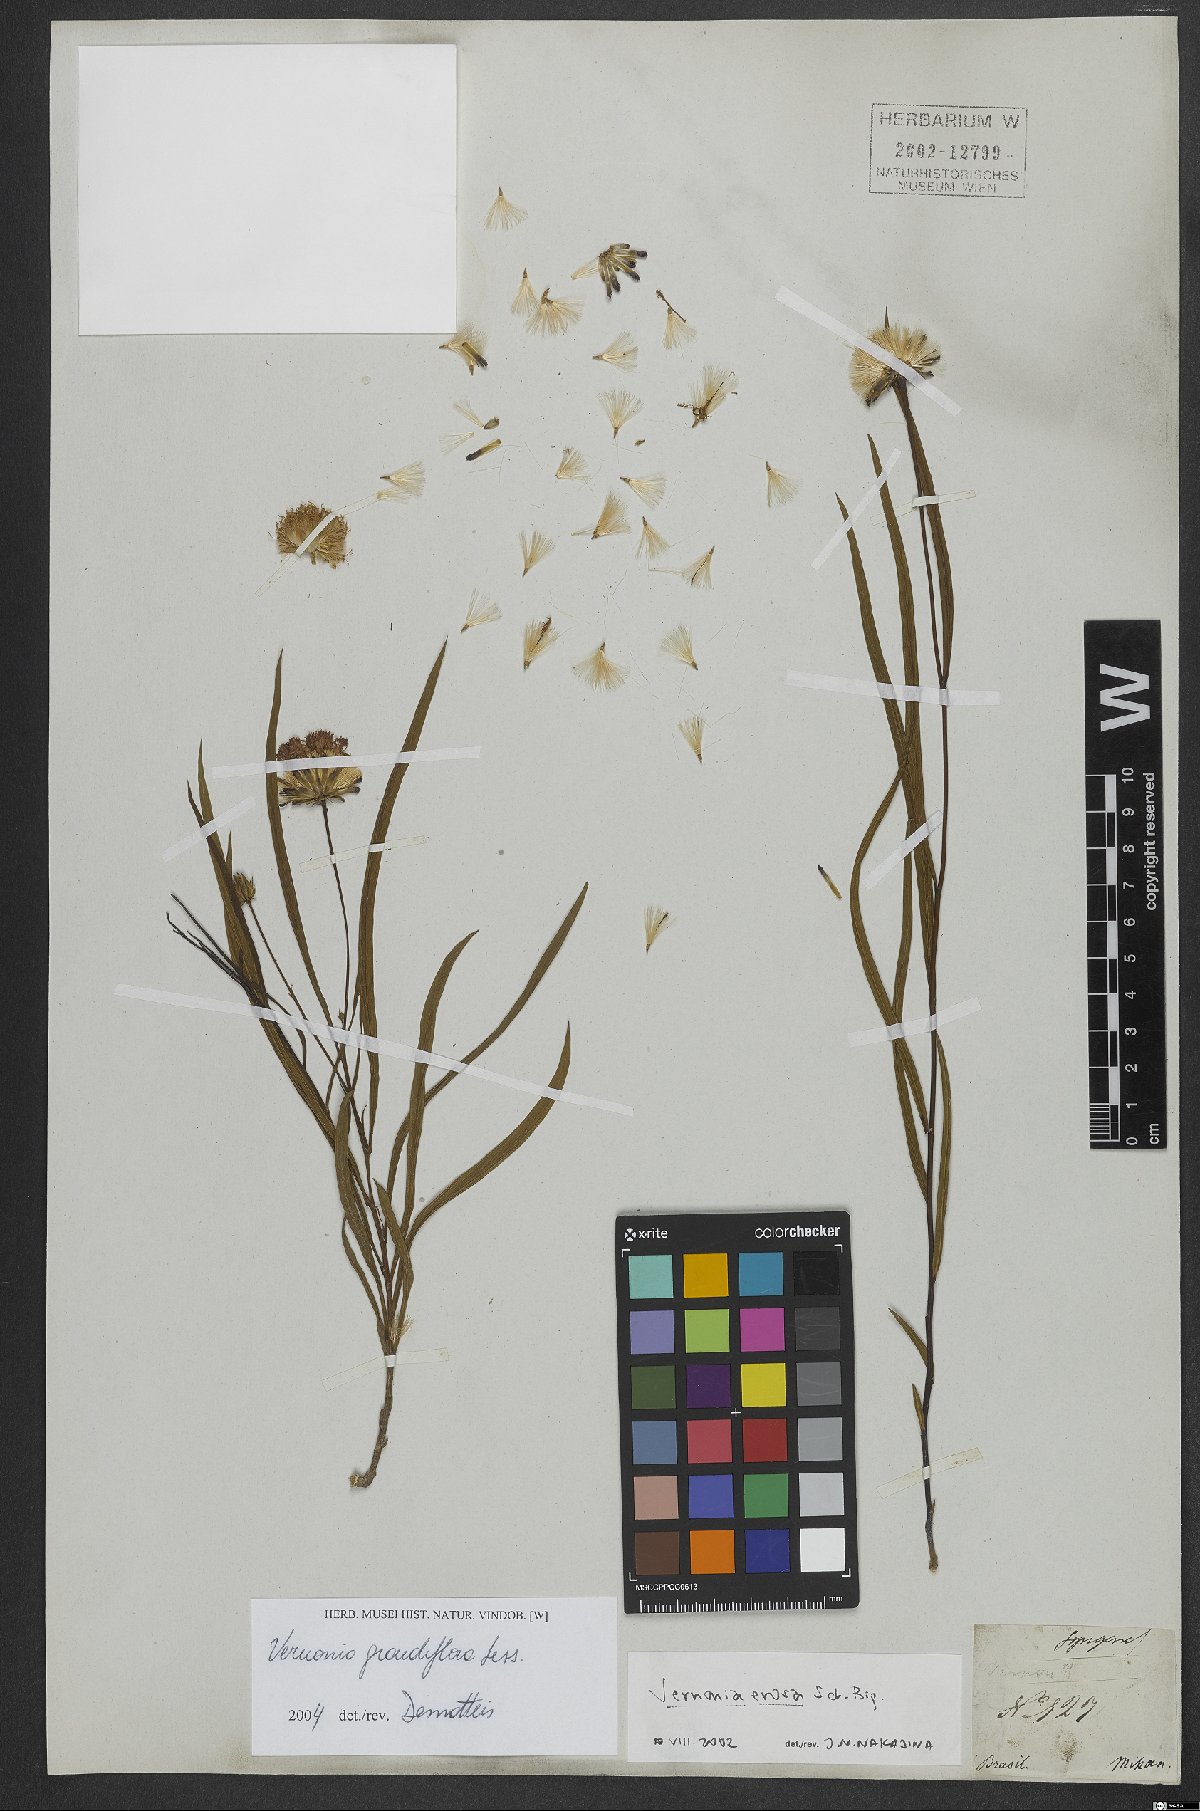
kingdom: Plantae
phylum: Tracheophyta
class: Magnoliopsida
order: Asterales
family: Asteraceae
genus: Lessingianthus
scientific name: Lessingianthus grandiflorus
